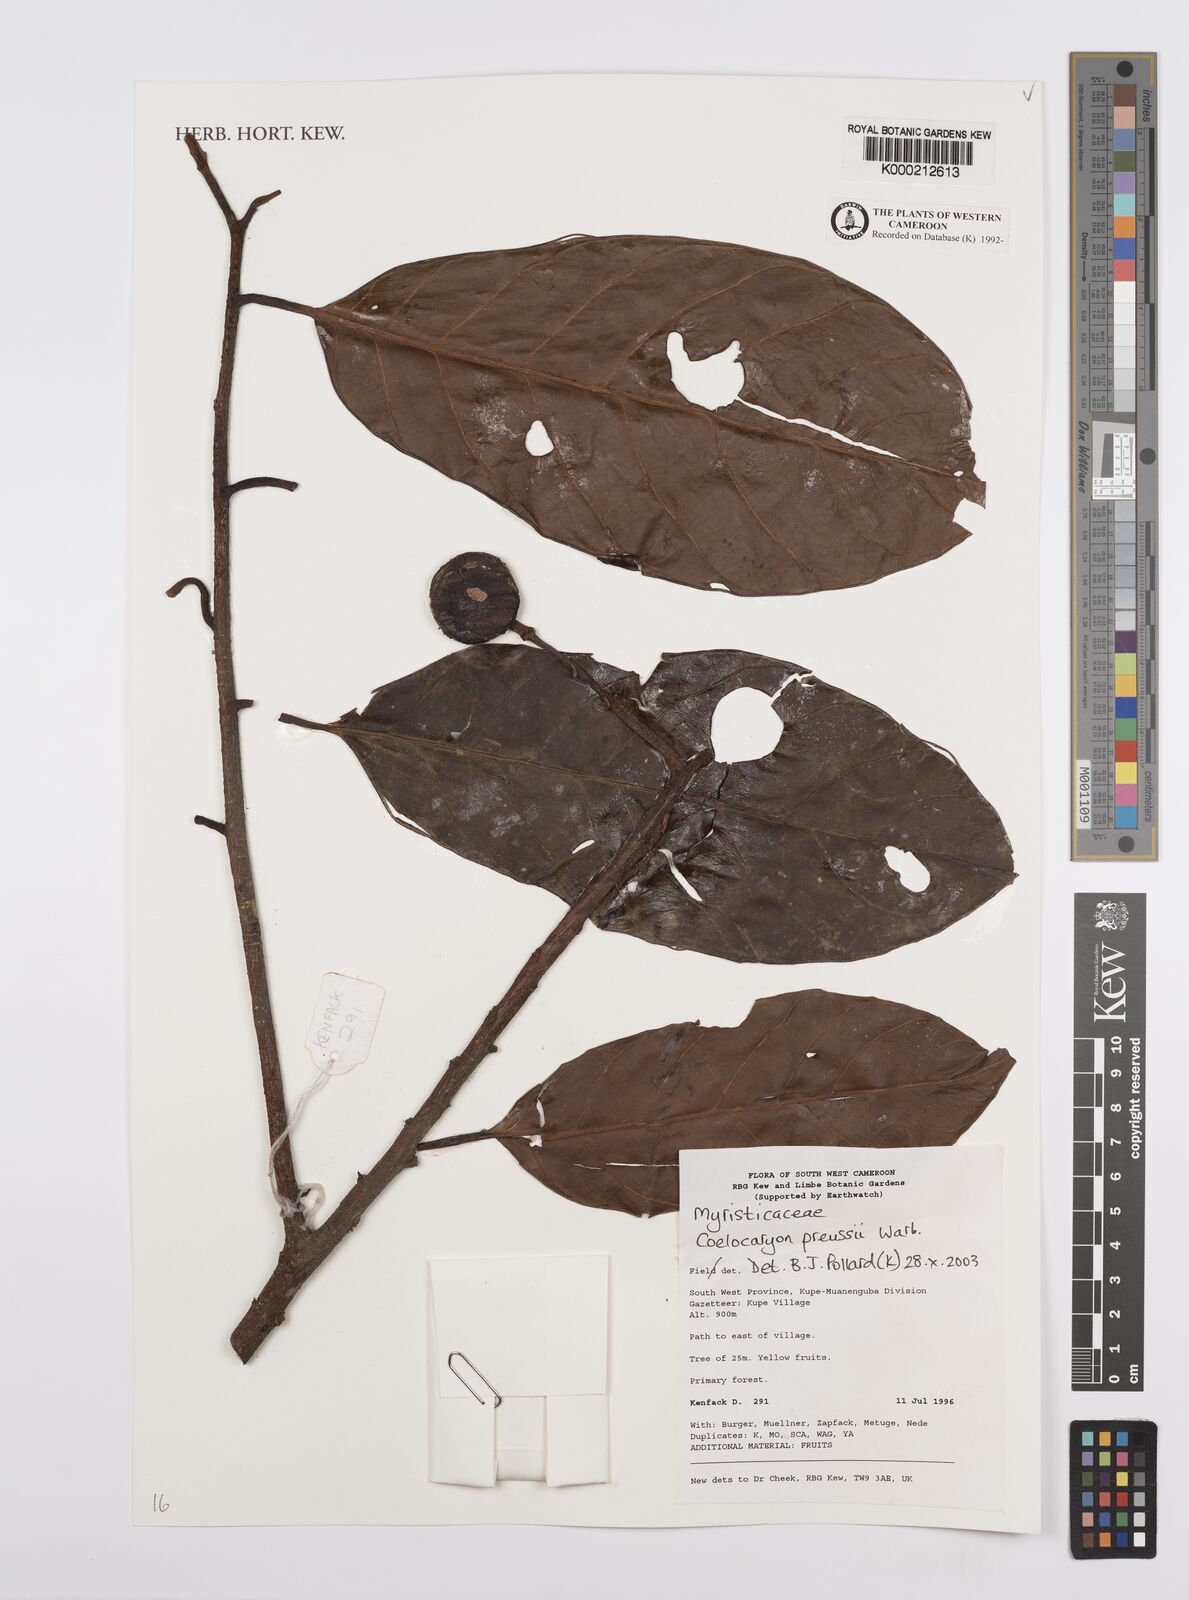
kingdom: Plantae
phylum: Tracheophyta
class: Magnoliopsida
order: Magnoliales
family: Myristicaceae
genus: Coelocaryon
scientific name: Coelocaryon preussii
